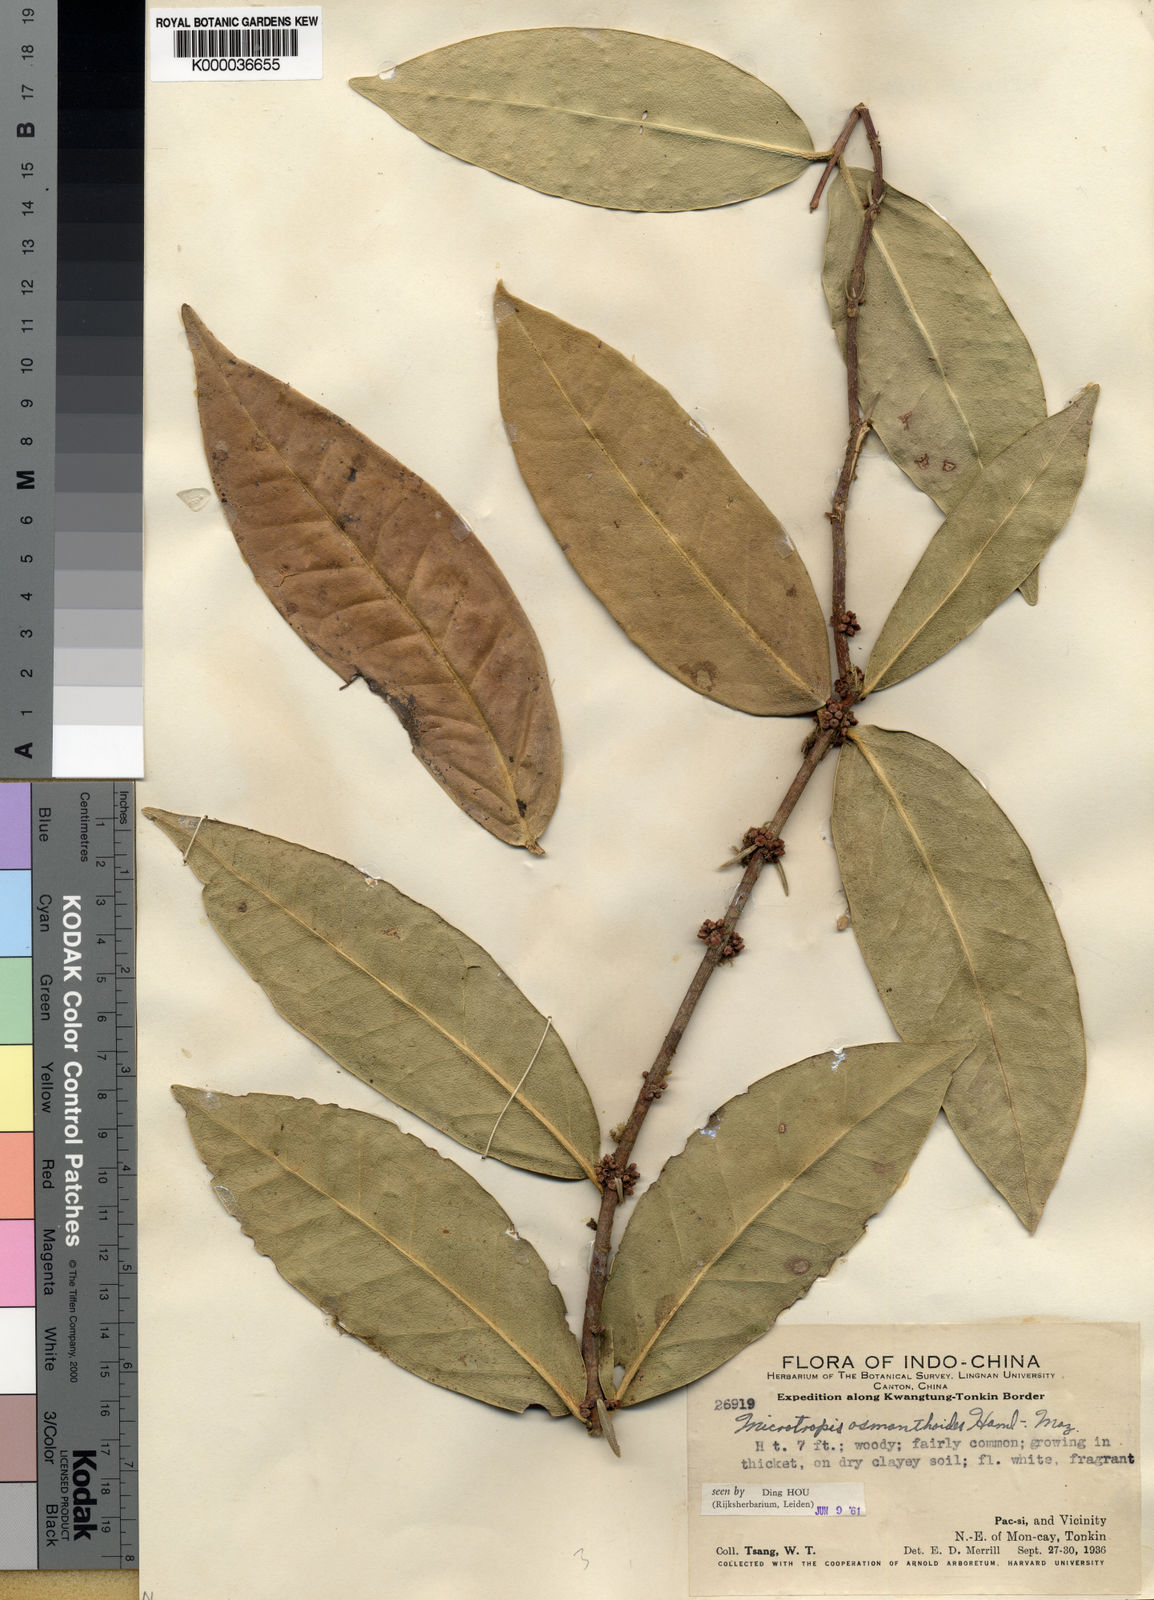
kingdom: Plantae
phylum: Tracheophyta
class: Magnoliopsida
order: Celastrales
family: Celastraceae
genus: Microtropis
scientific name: Microtropis osmanthoides
